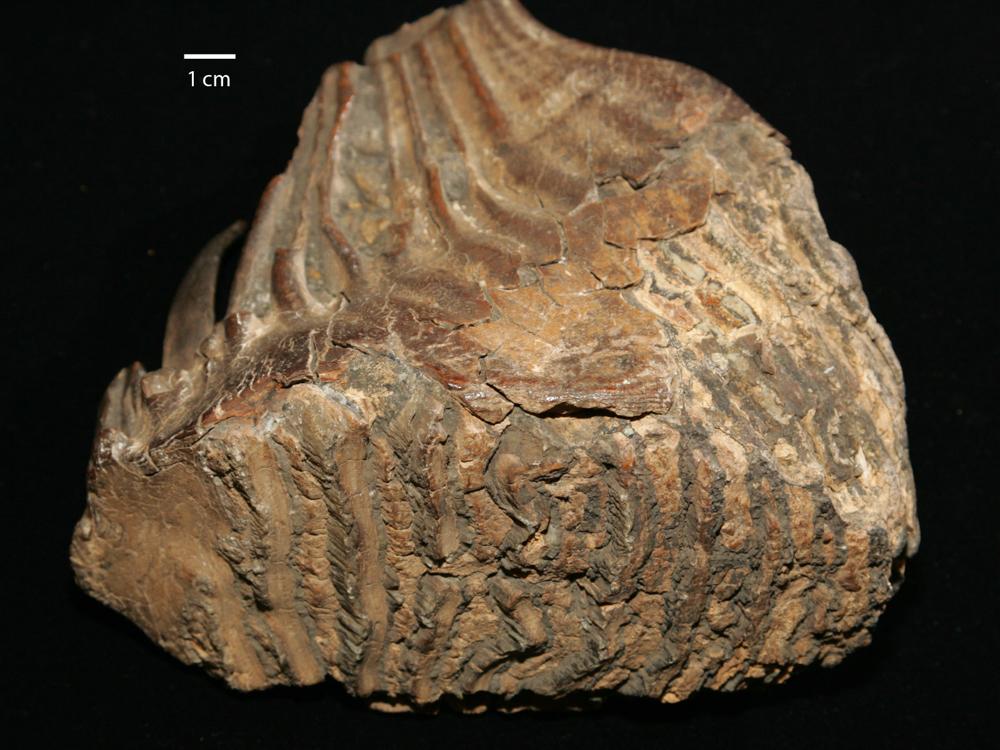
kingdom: Animalia
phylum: Chordata
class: Mammalia
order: Proboscidea
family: Elephantidae
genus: Mammuthus
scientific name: Mammuthus primigenius
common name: Wooly mammoth
